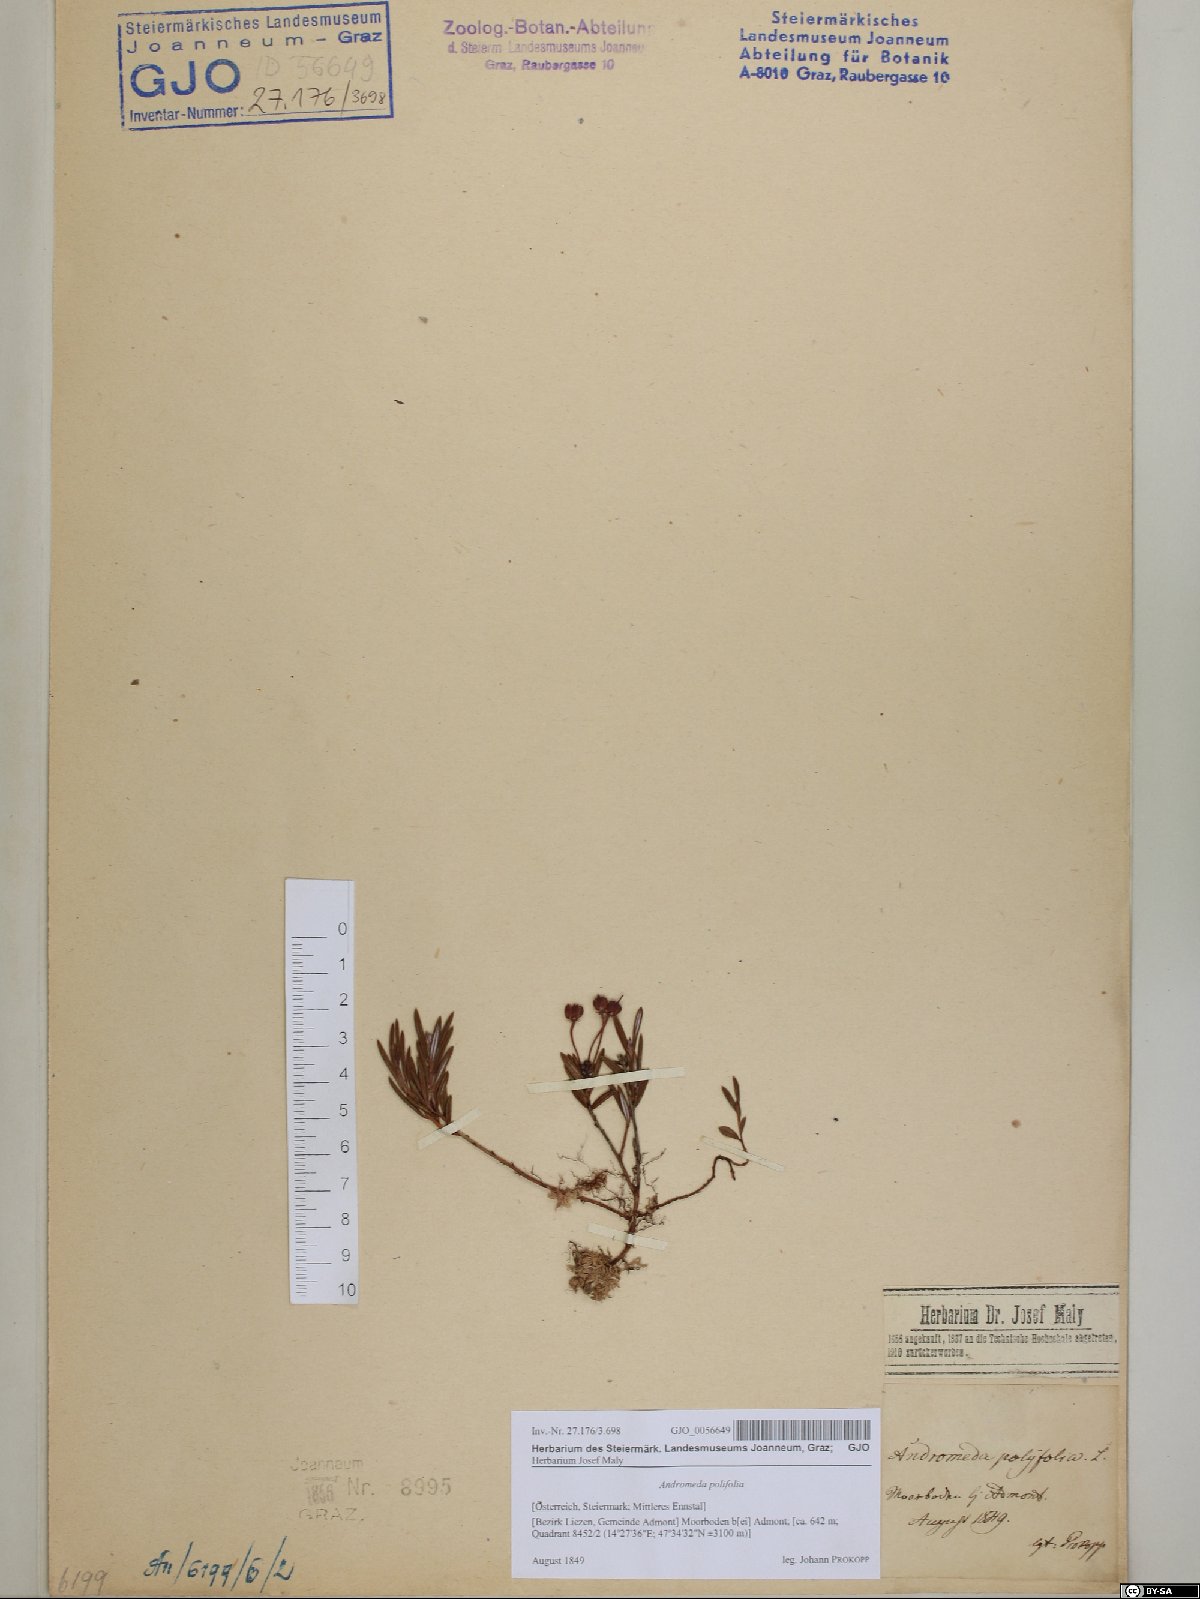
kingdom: Plantae
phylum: Tracheophyta
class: Magnoliopsida
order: Ericales
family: Ericaceae
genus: Andromeda
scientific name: Andromeda polifolia
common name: Bog-rosemary
